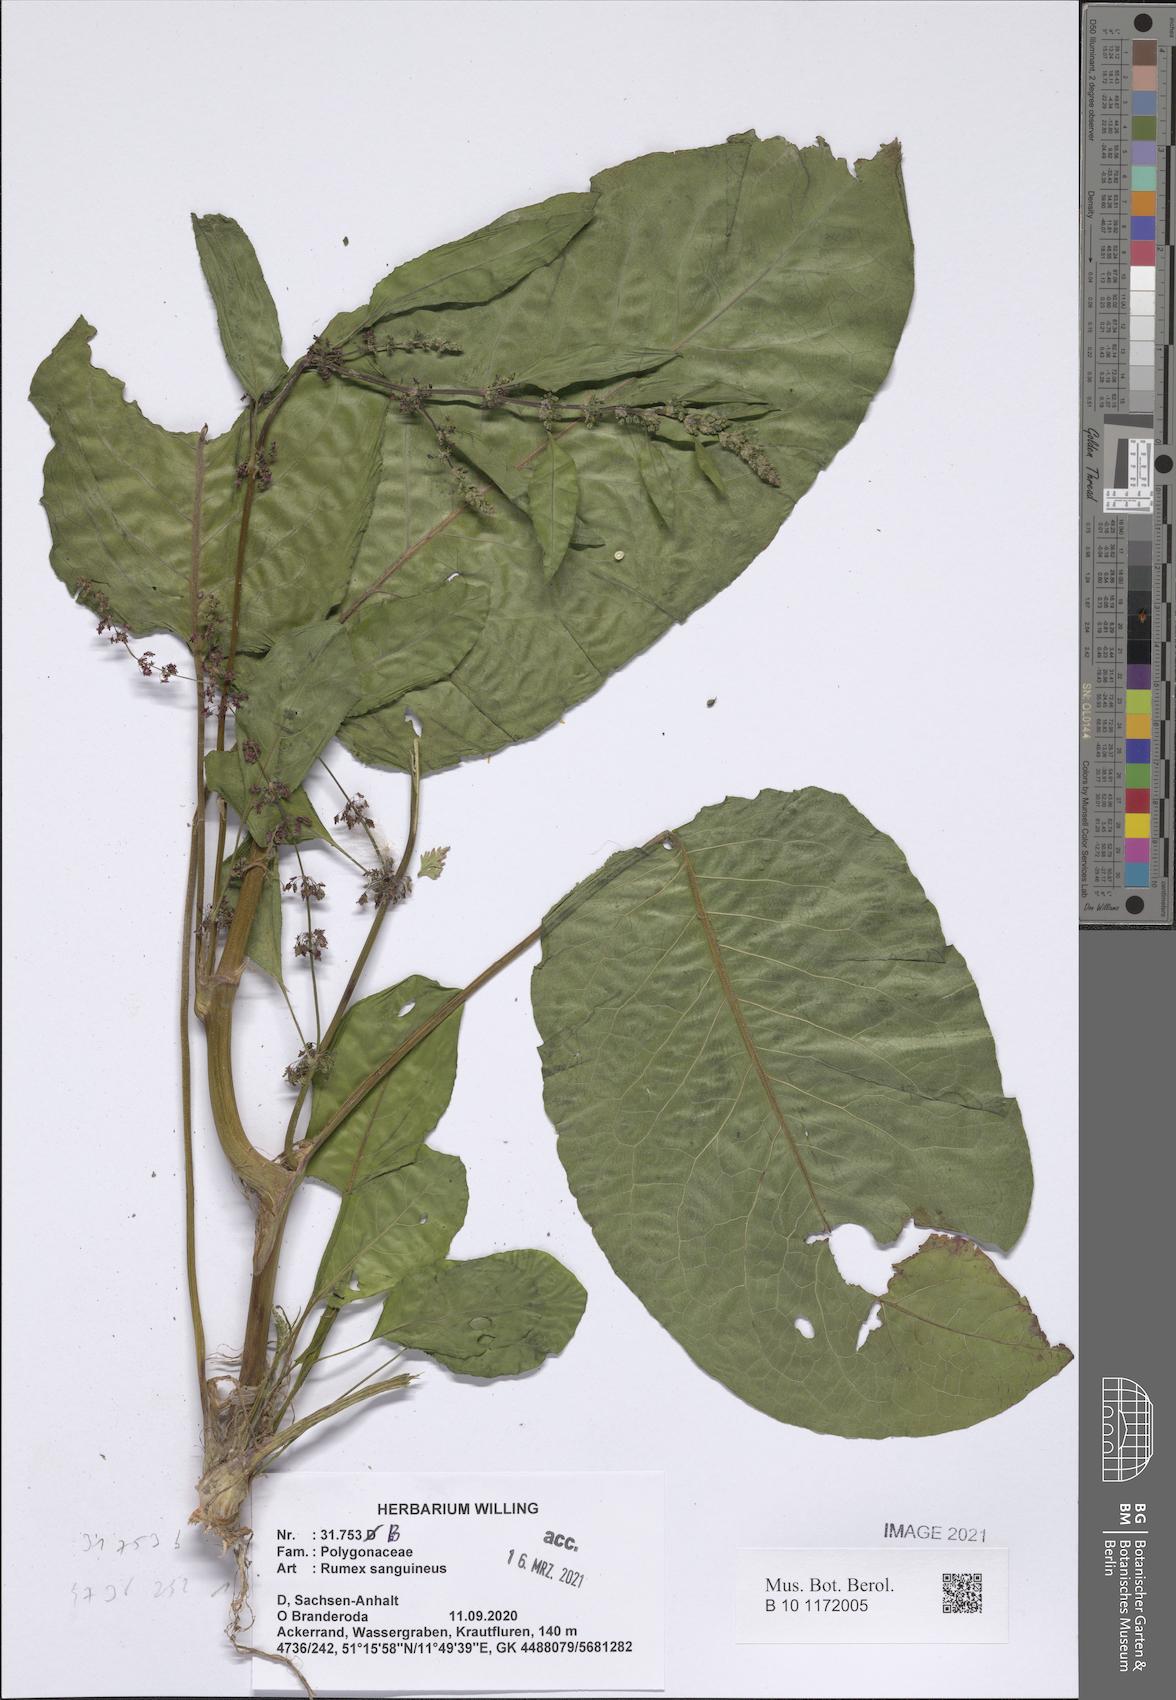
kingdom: Plantae
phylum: Tracheophyta
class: Magnoliopsida
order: Caryophyllales
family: Polygonaceae
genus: Rumex
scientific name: Rumex sanguineus
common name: Wood dock
